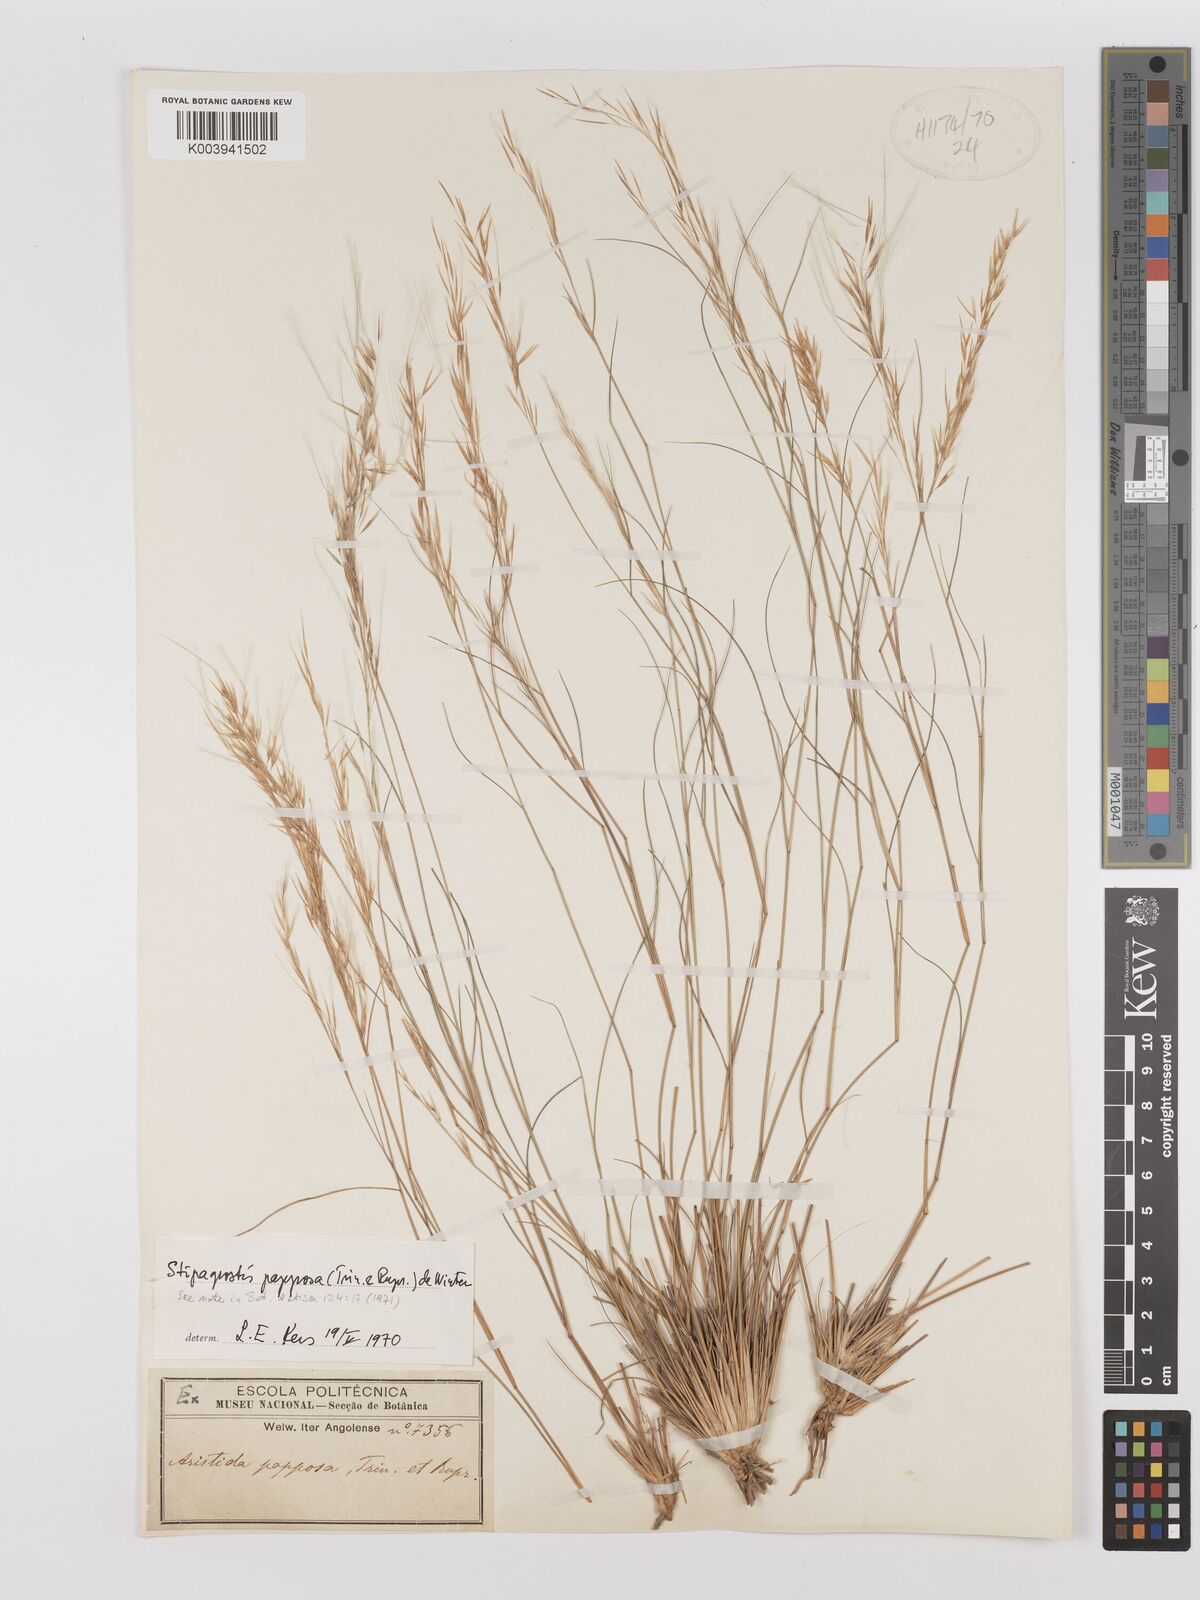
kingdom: Plantae
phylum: Tracheophyta
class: Liliopsida
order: Poales
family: Poaceae
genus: Stipagrostis
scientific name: Stipagrostis uniplumis
